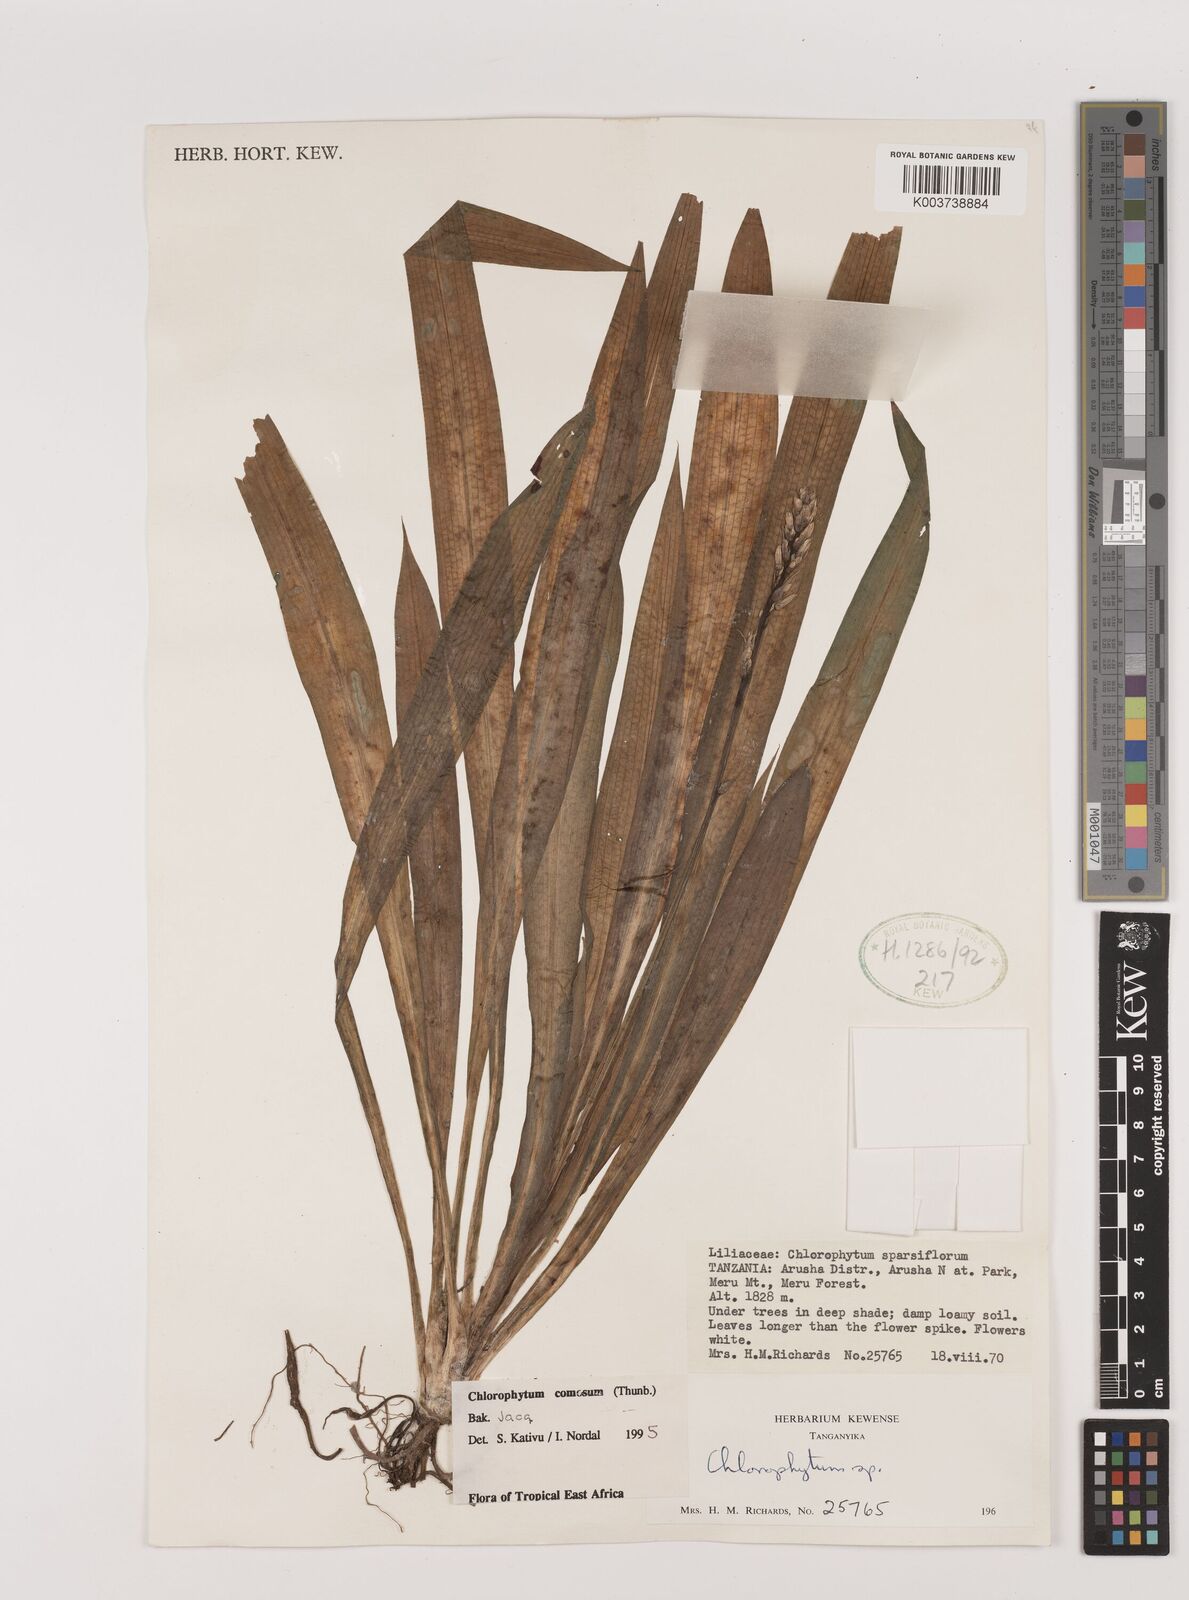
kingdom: Plantae
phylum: Tracheophyta
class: Liliopsida
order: Asparagales
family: Asparagaceae
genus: Chlorophytum
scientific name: Chlorophytum comosum
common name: Spider plant
